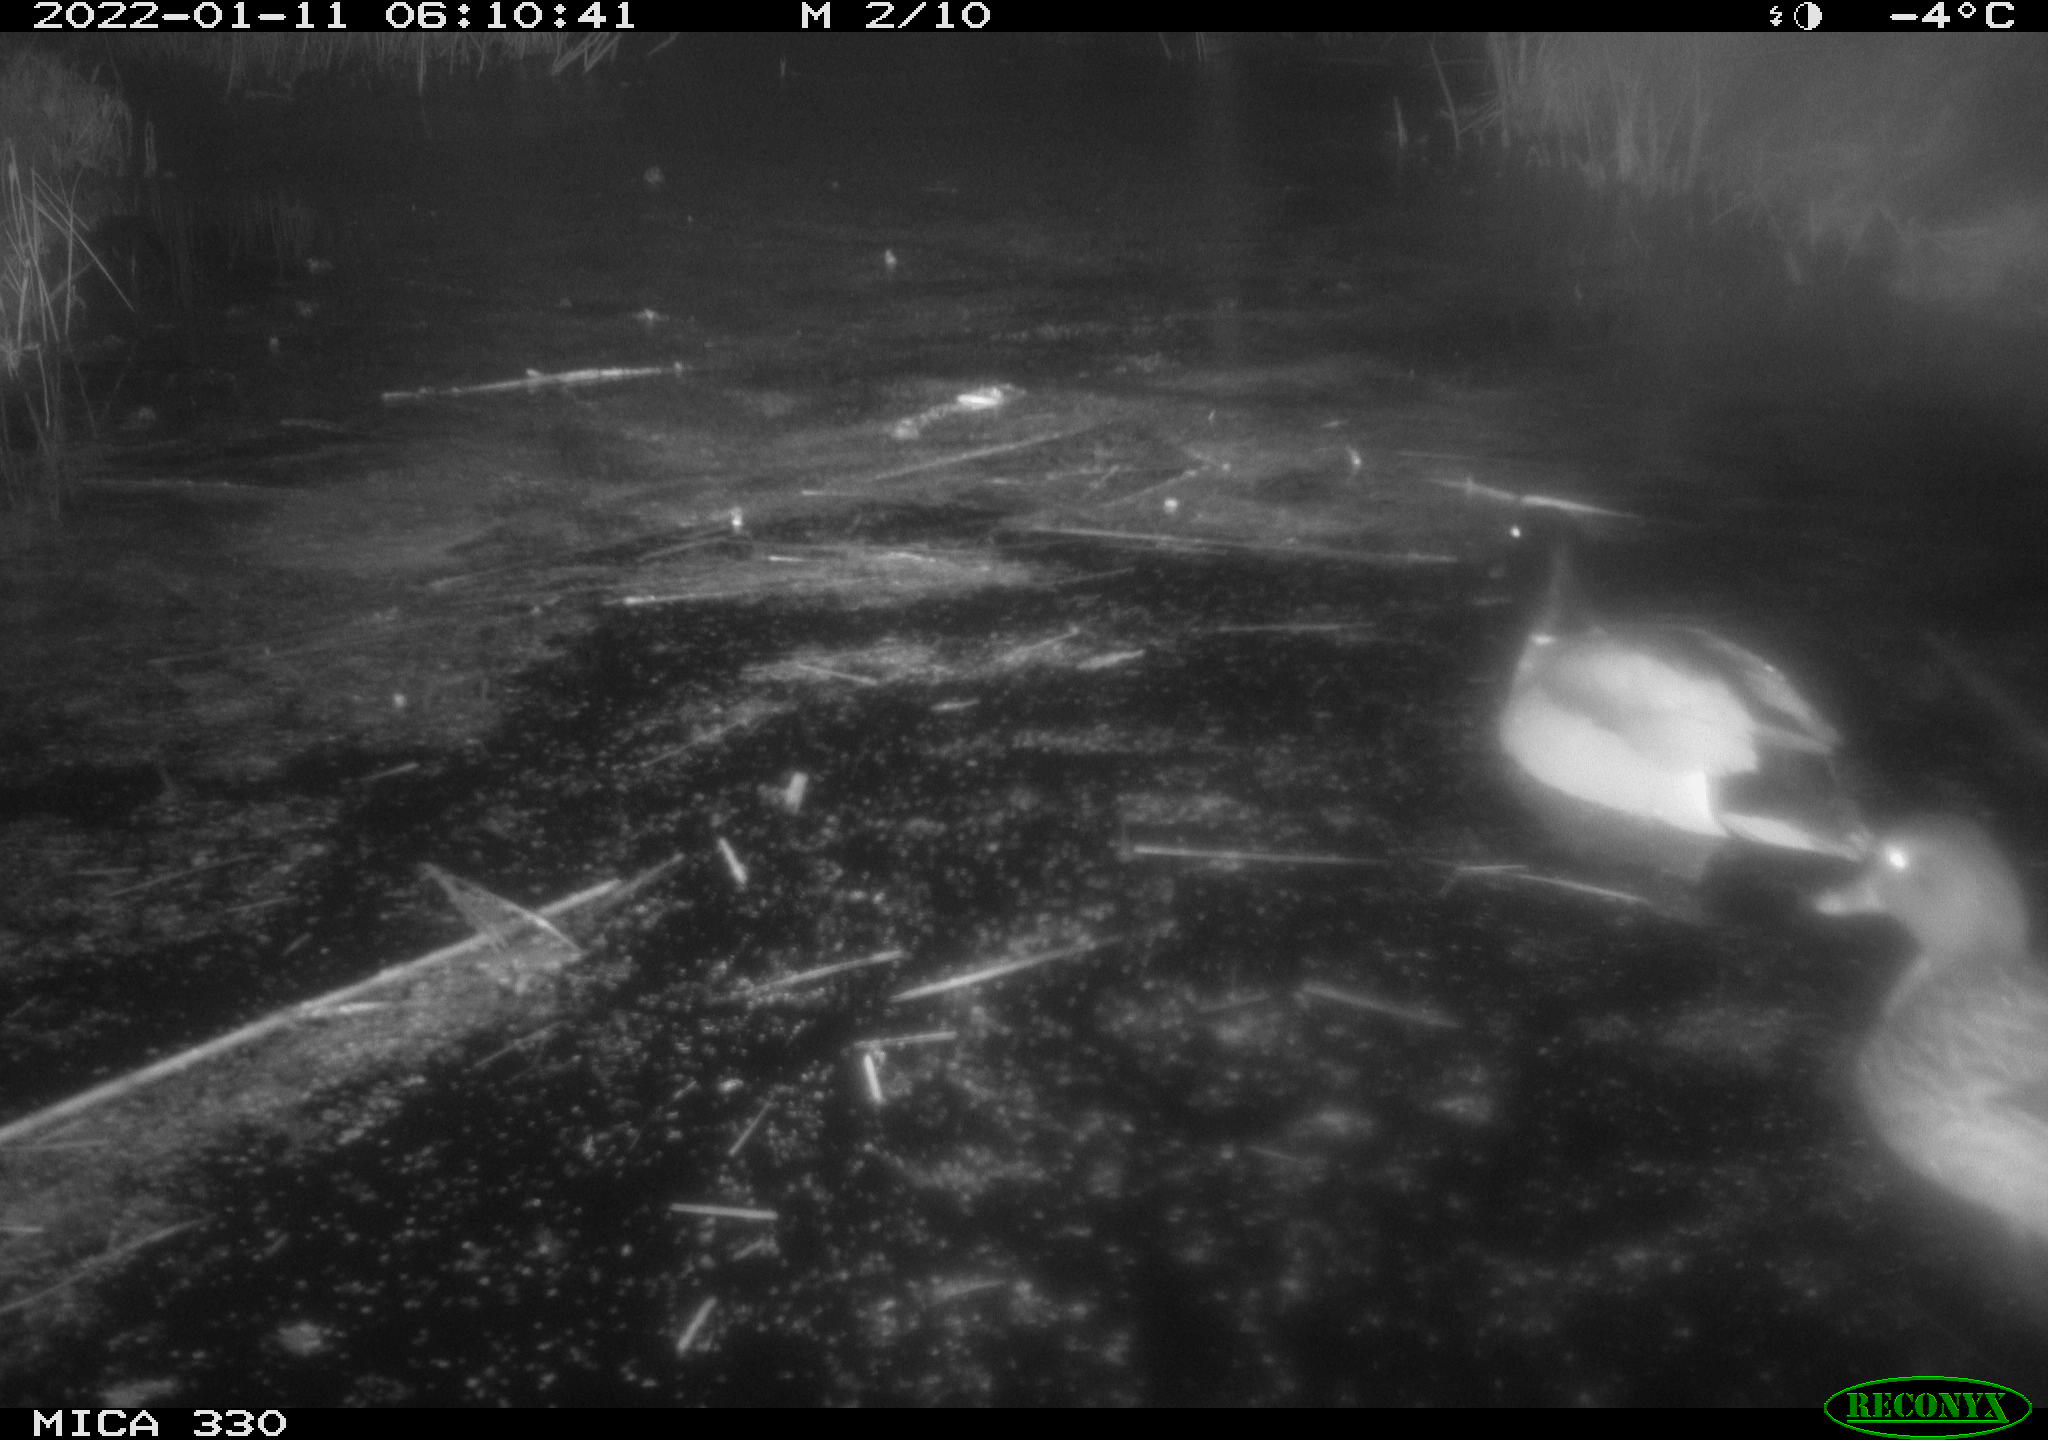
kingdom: Animalia
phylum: Chordata
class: Aves
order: Anseriformes
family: Anatidae
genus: Anas
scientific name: Anas platyrhynchos
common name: Mallard
